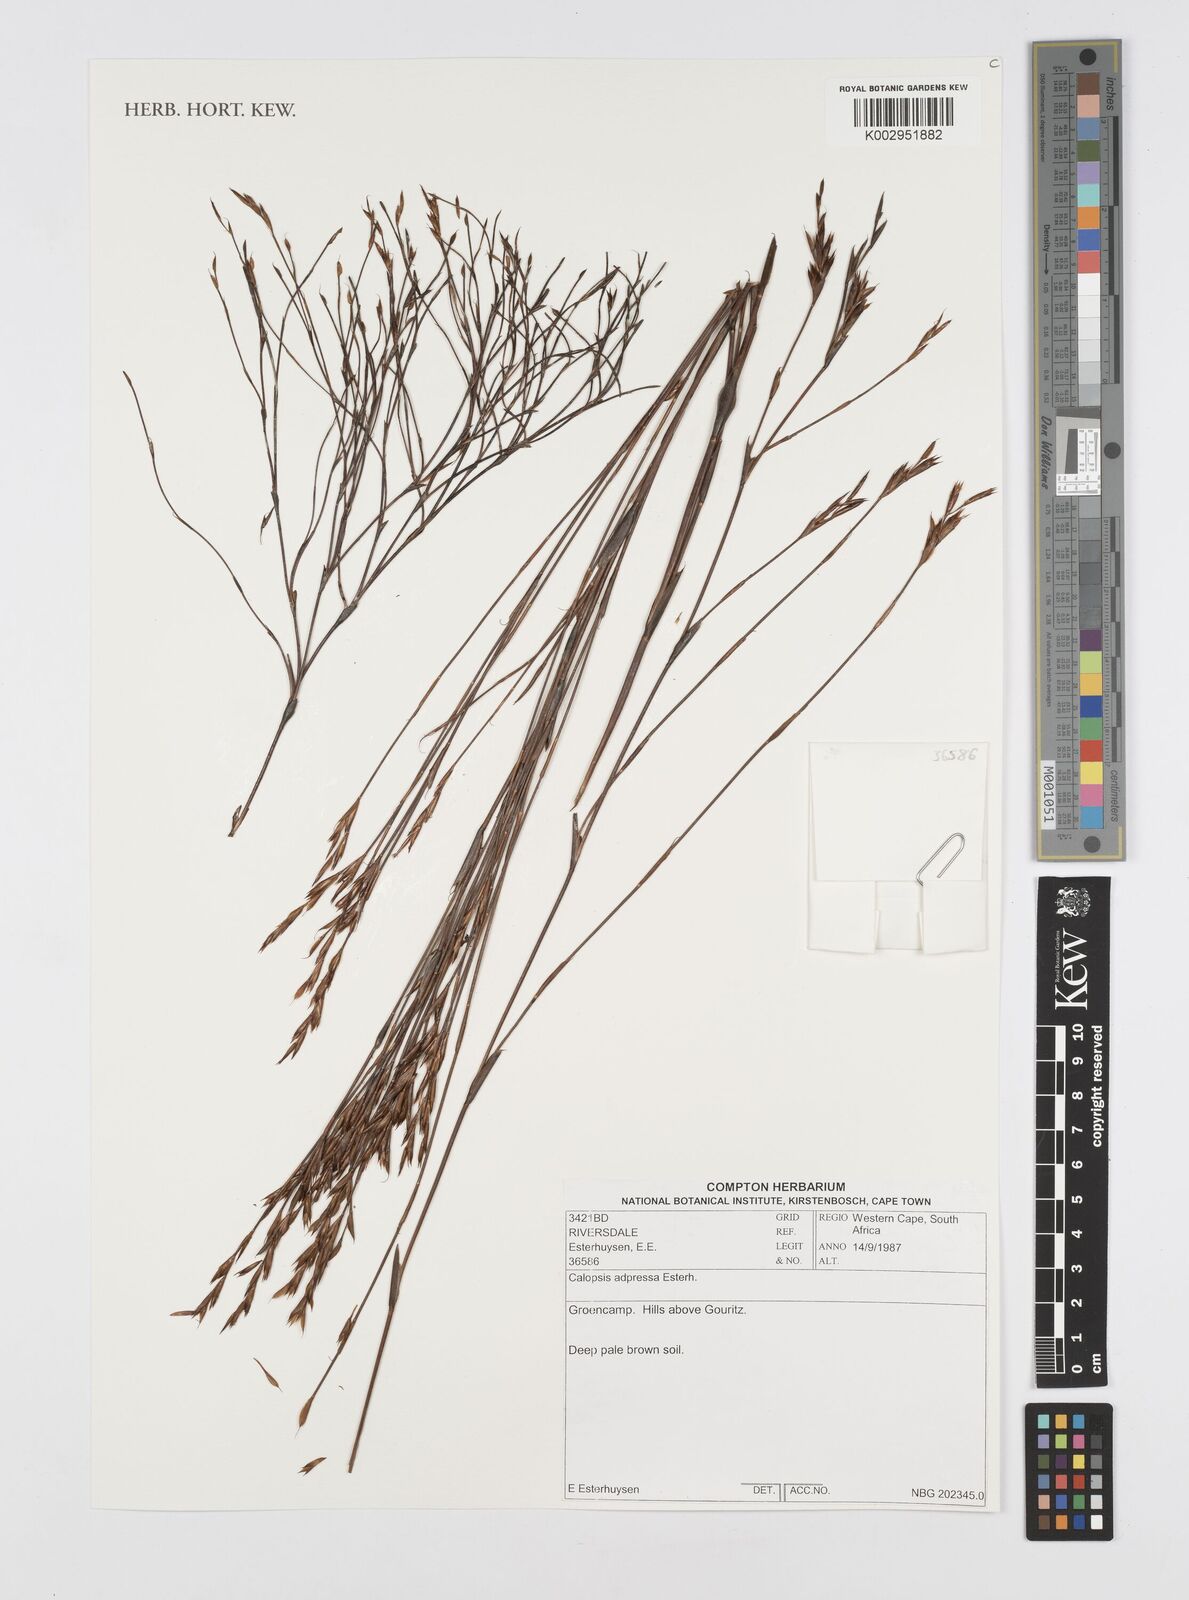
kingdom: Plantae
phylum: Tracheophyta
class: Liliopsida
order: Poales
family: Restionaceae
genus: Restio
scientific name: Restio adpressus
